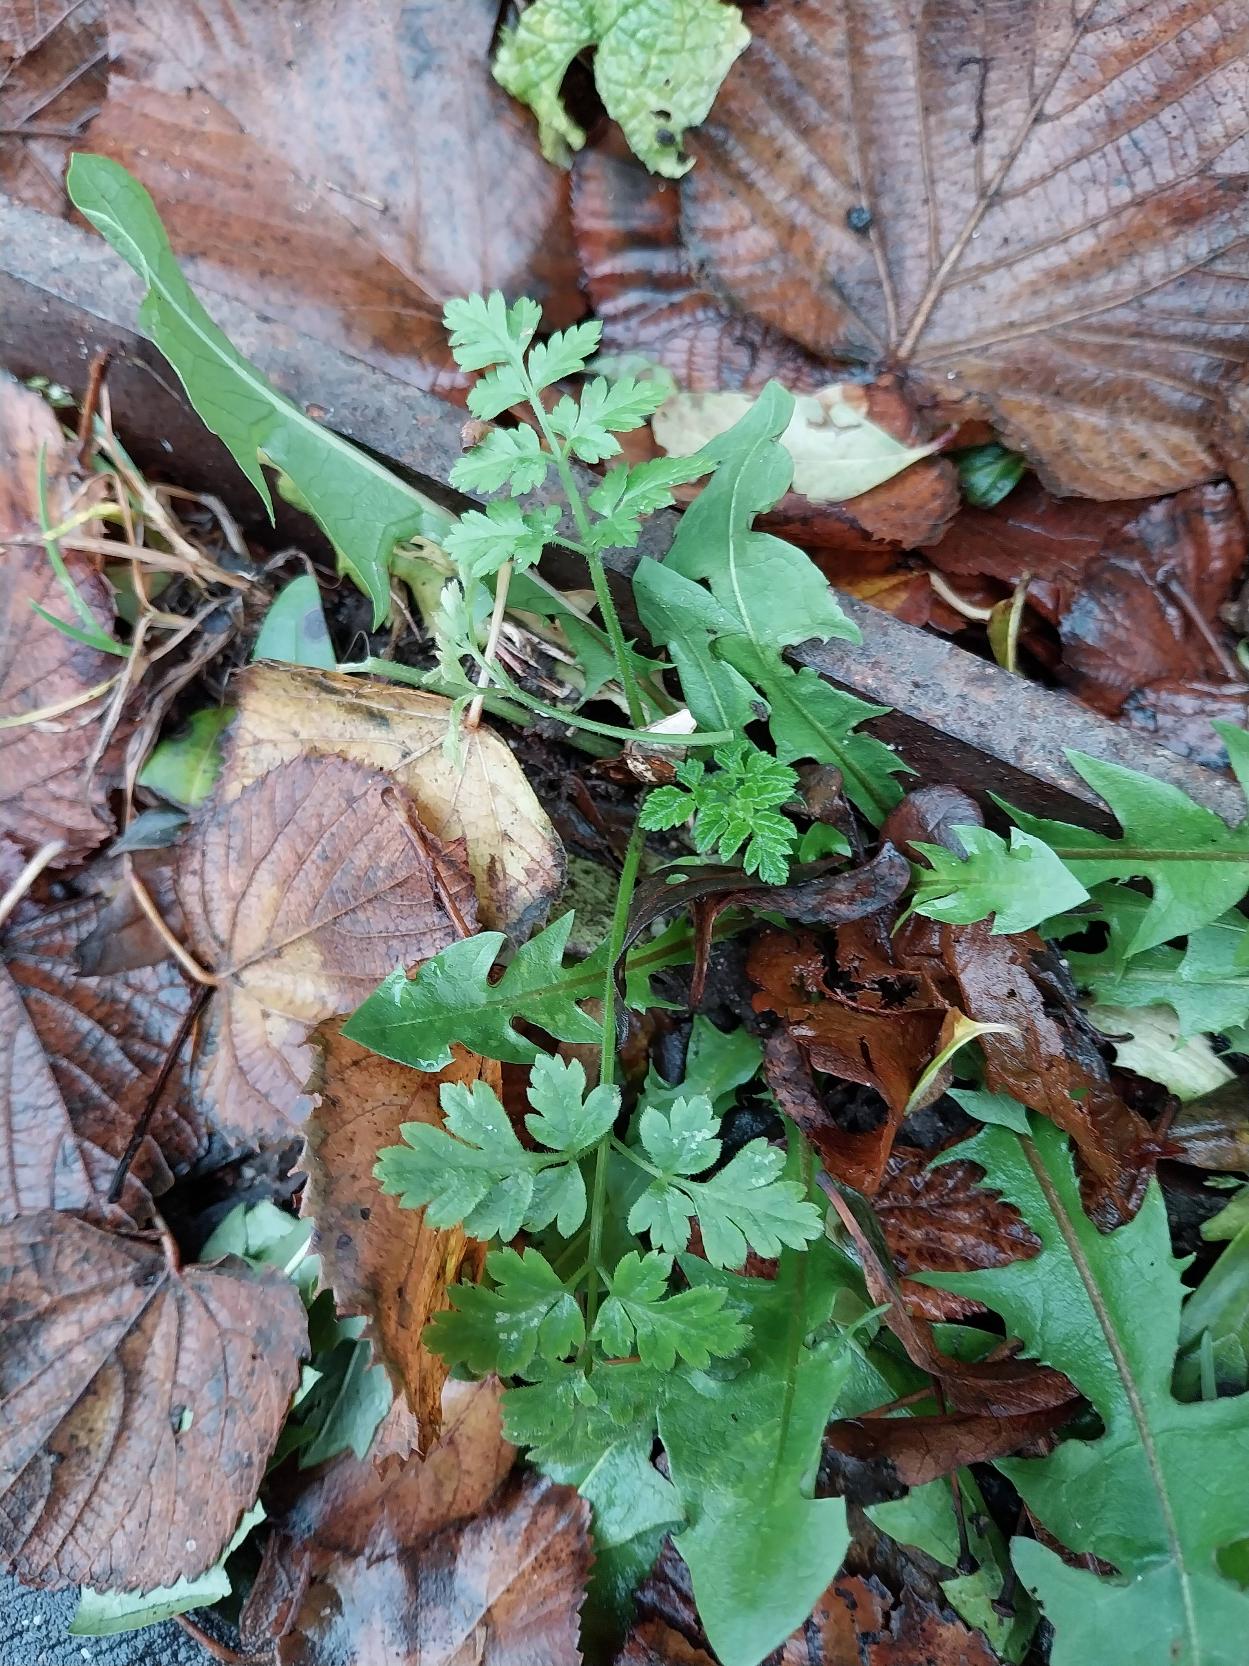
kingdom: Plantae
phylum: Tracheophyta
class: Magnoliopsida
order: Apiales
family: Apiaceae
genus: Chaerophyllum
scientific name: Chaerophyllum temulum
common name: Almindelig hulsvøb
